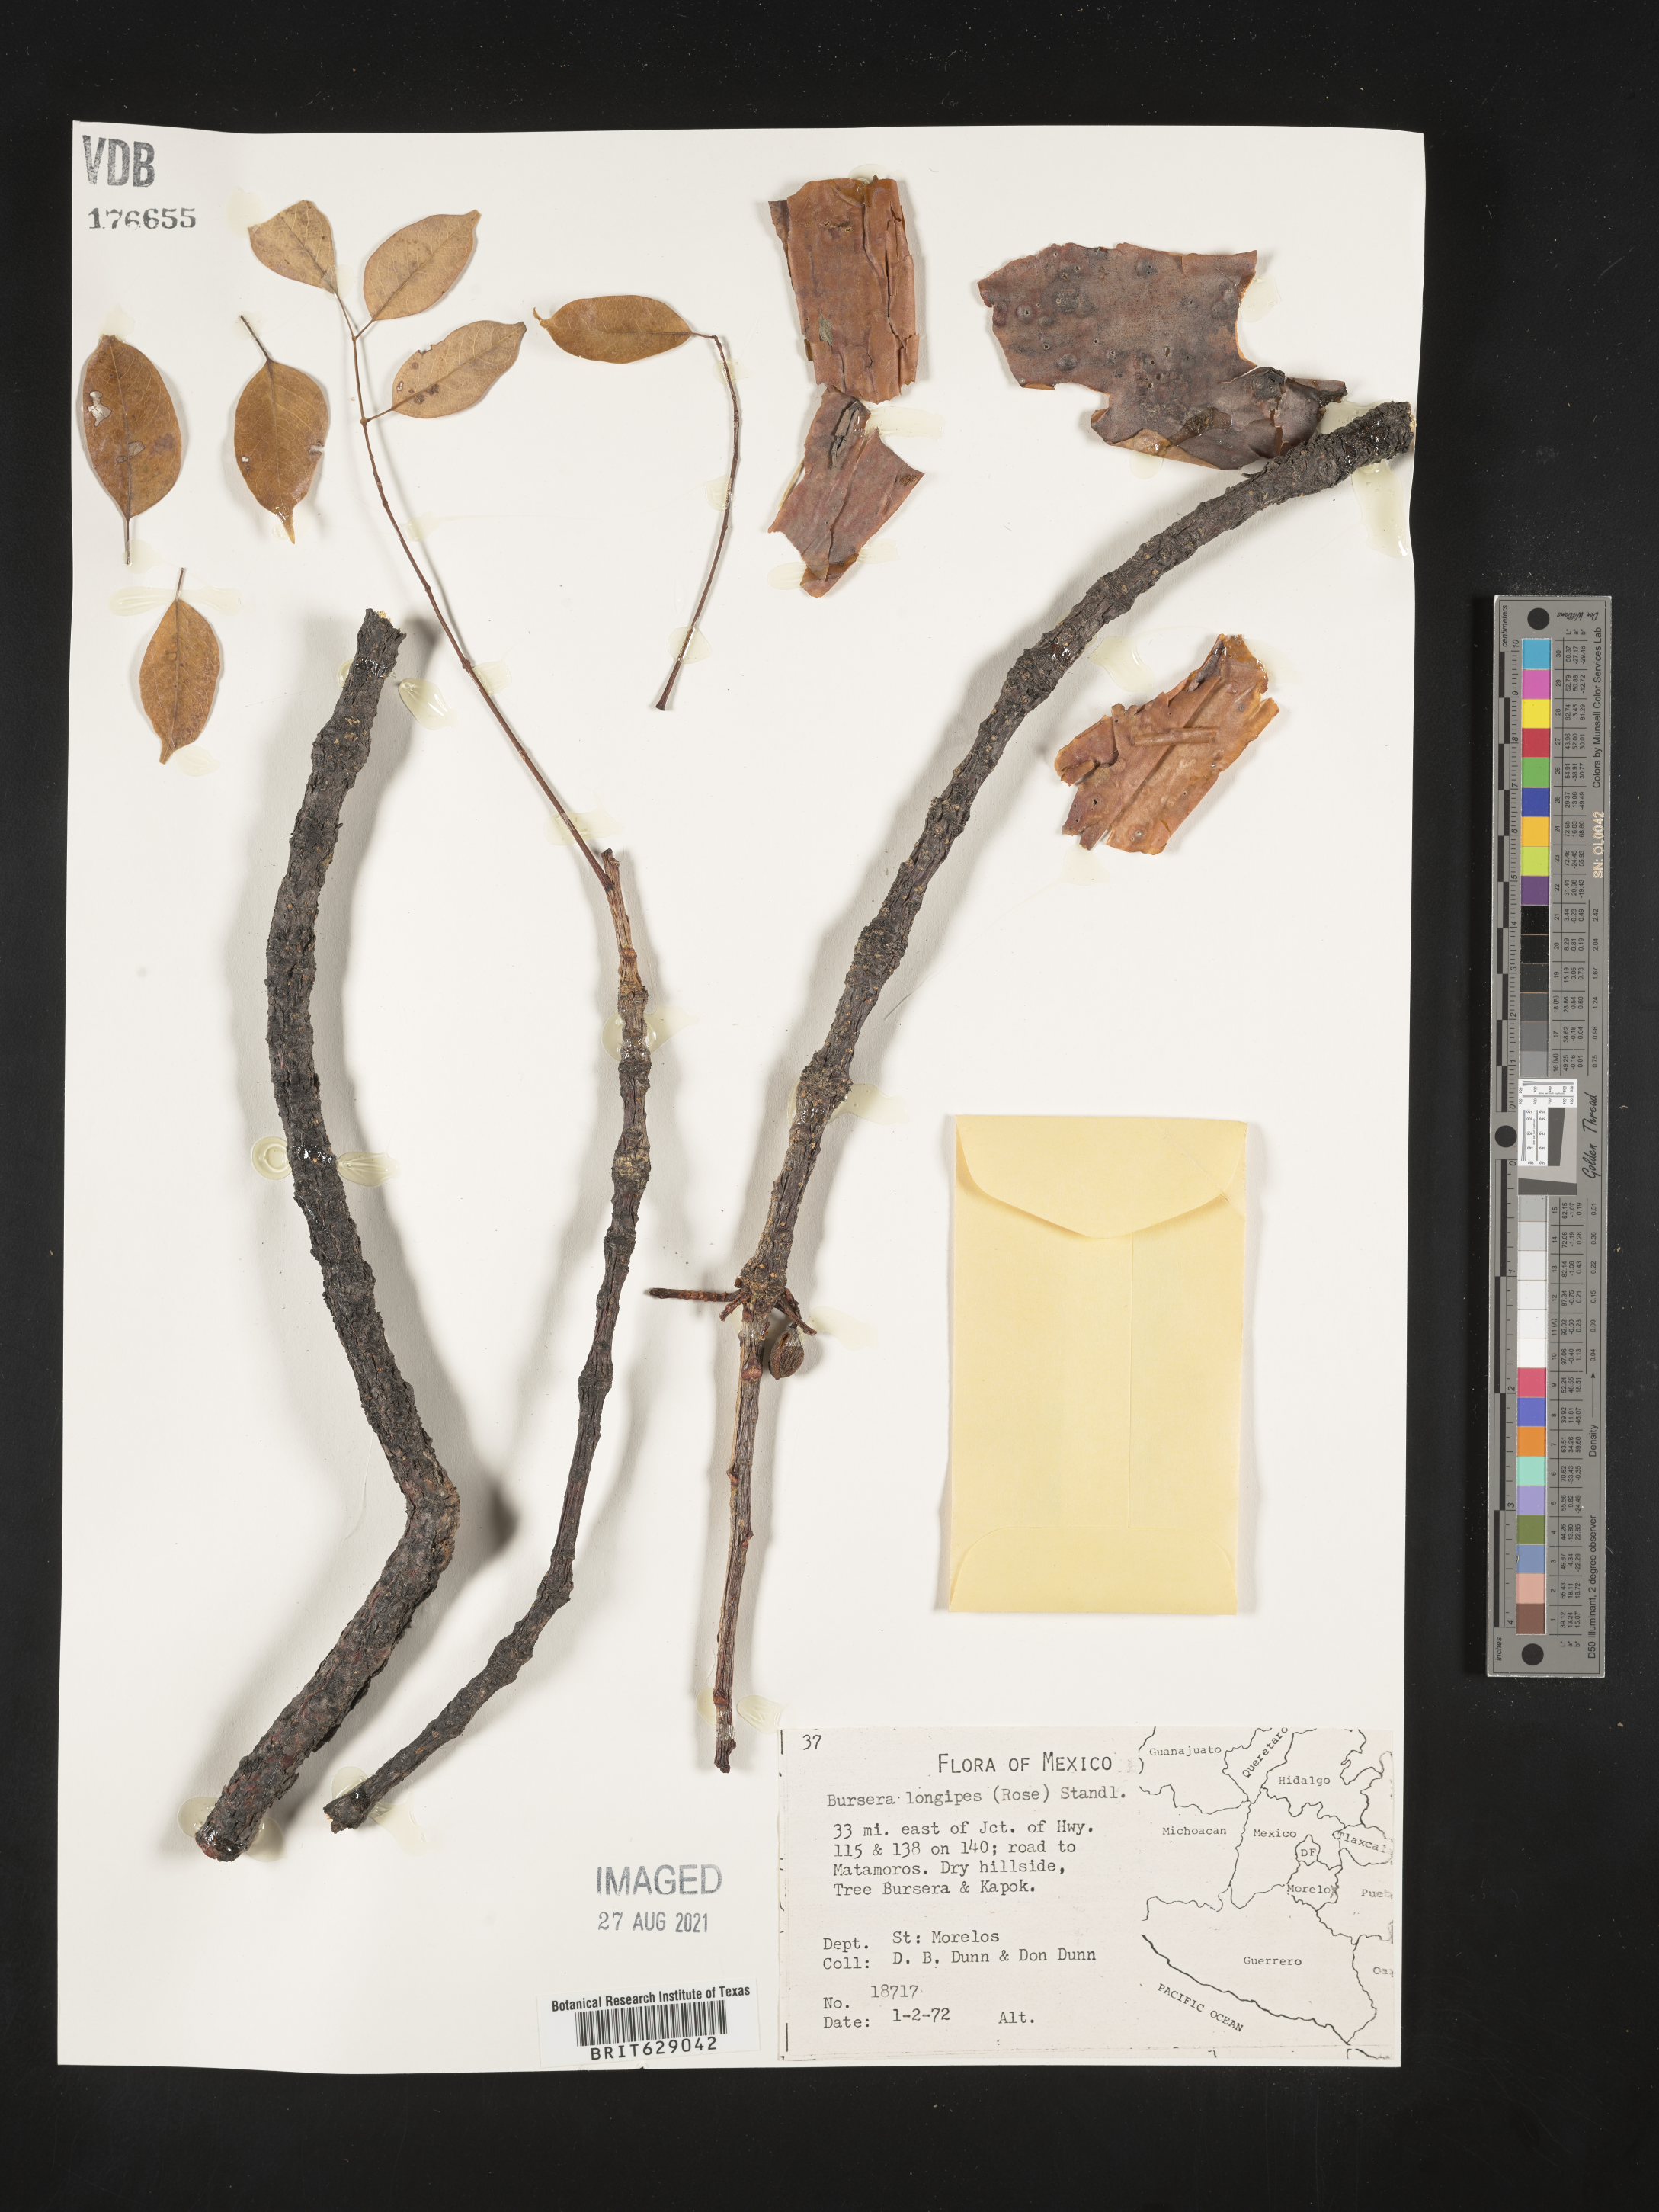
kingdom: Plantae
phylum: Tracheophyta
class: Magnoliopsida
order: Sapindales
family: Burseraceae
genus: Bursera
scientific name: Bursera
